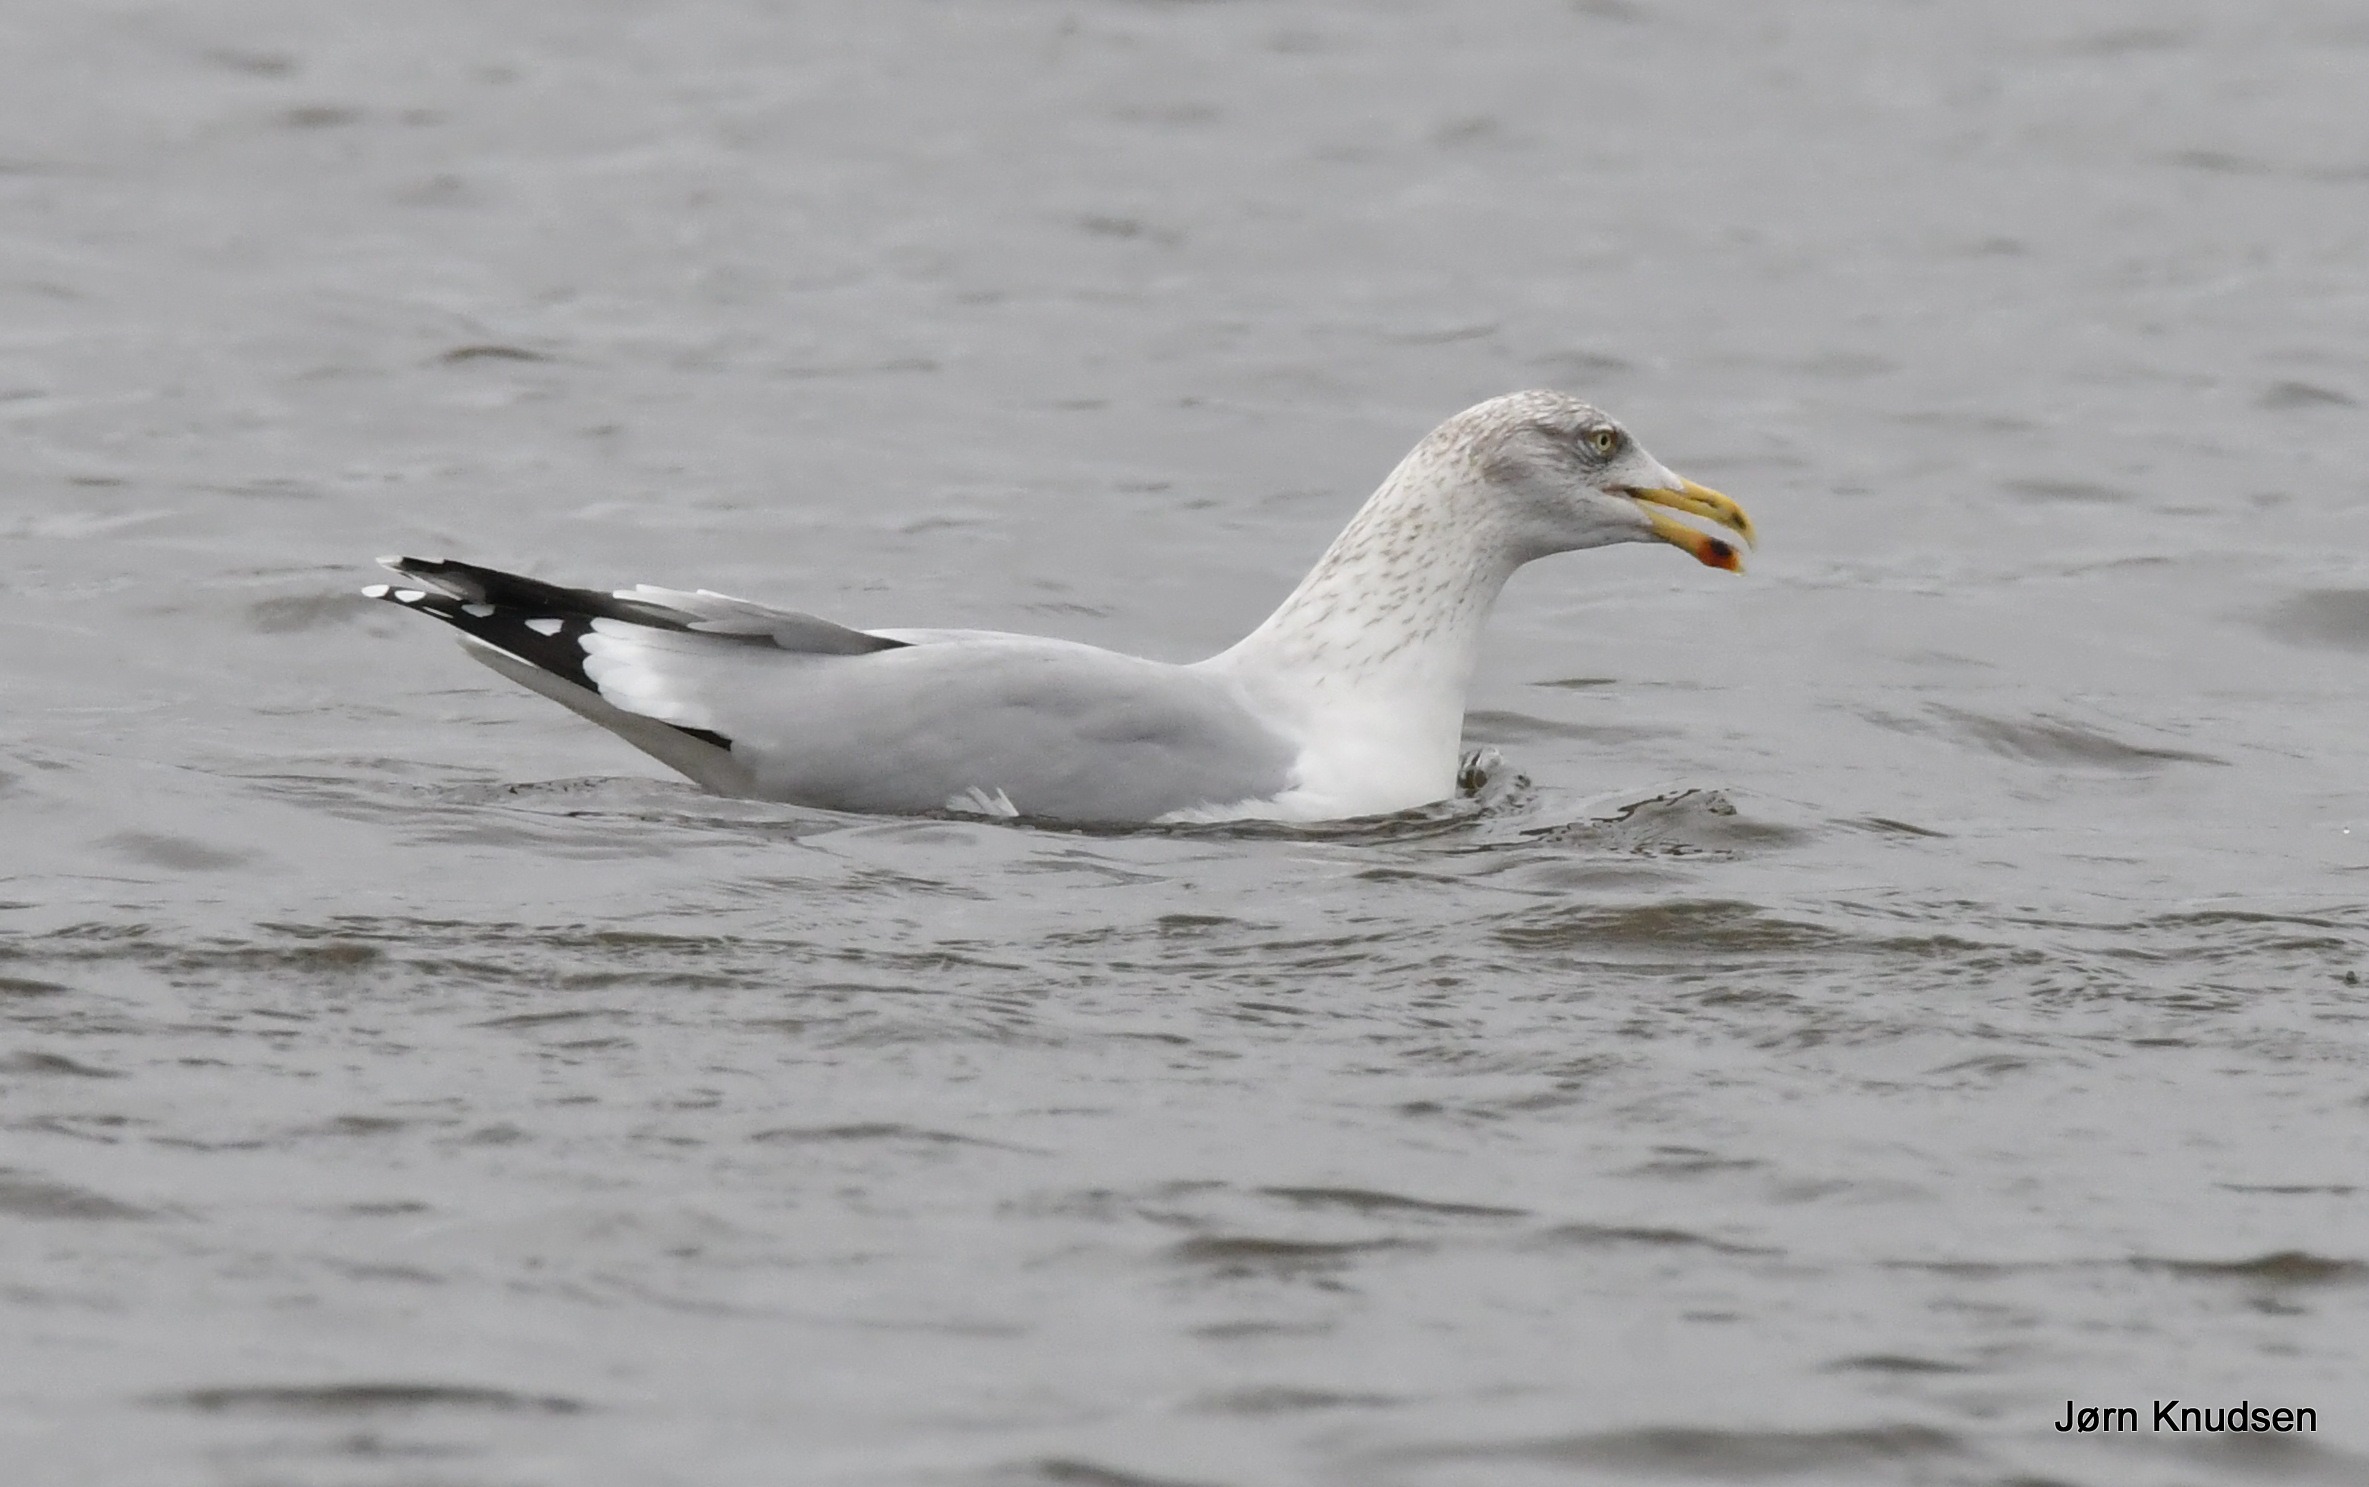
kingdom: Animalia
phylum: Chordata
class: Aves
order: Charadriiformes
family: Laridae
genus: Larus
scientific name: Larus argentatus
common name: Sølvmåge
